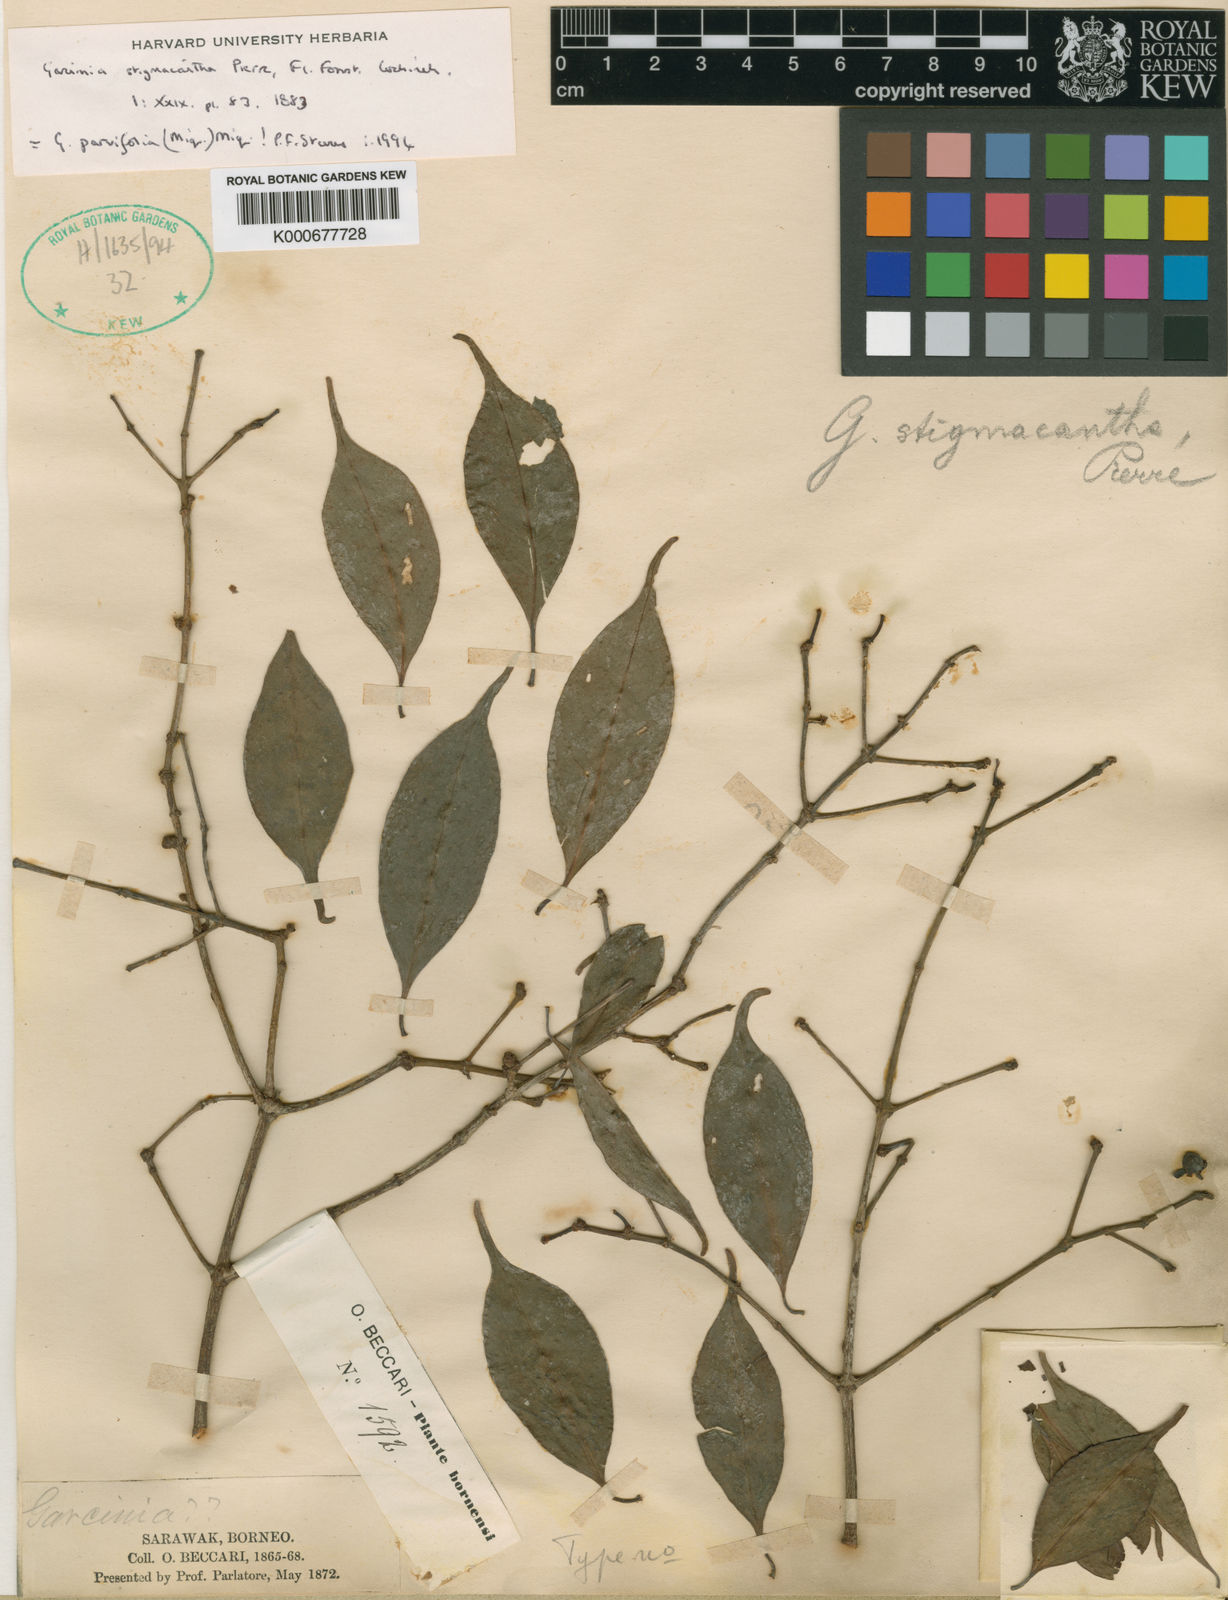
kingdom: Plantae
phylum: Tracheophyta
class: Magnoliopsida
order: Malpighiales
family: Clusiaceae
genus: Garcinia
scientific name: Garcinia stigmacantha
